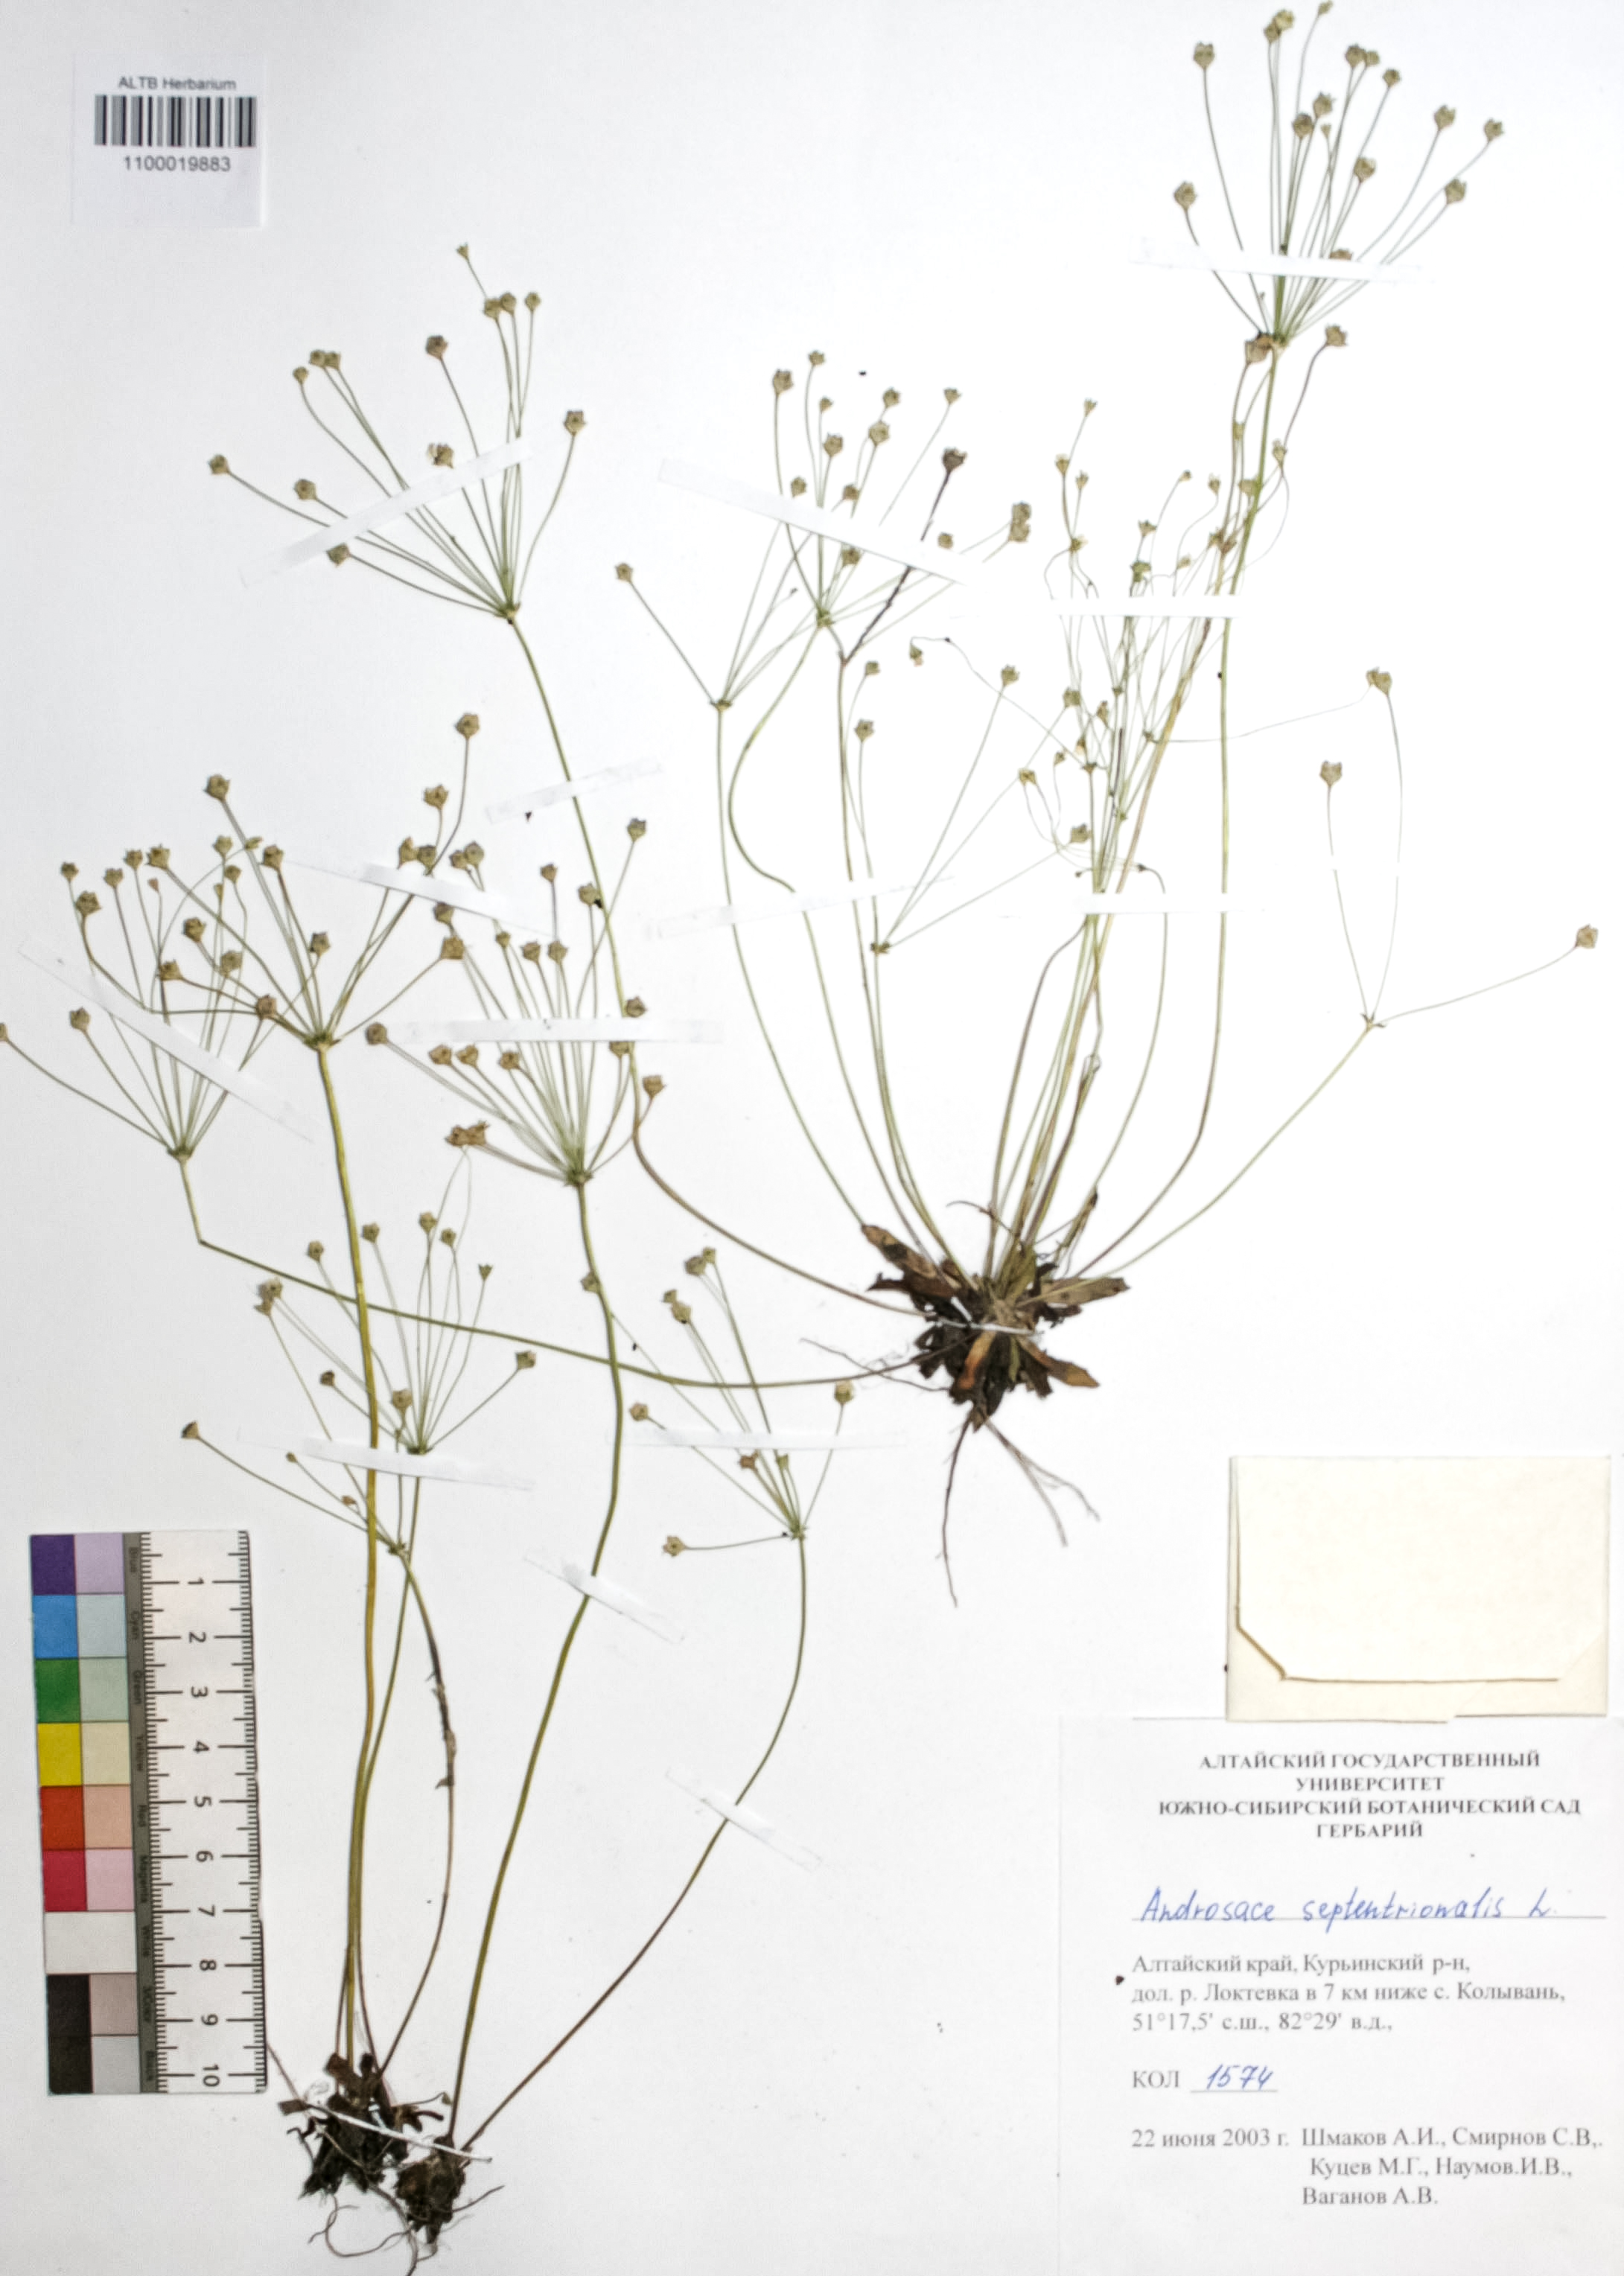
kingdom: Plantae
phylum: Tracheophyta
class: Magnoliopsida
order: Ericales
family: Primulaceae
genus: Androsace
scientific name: Androsace septentrionalis
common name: Hairy northern fairy-candelabra
